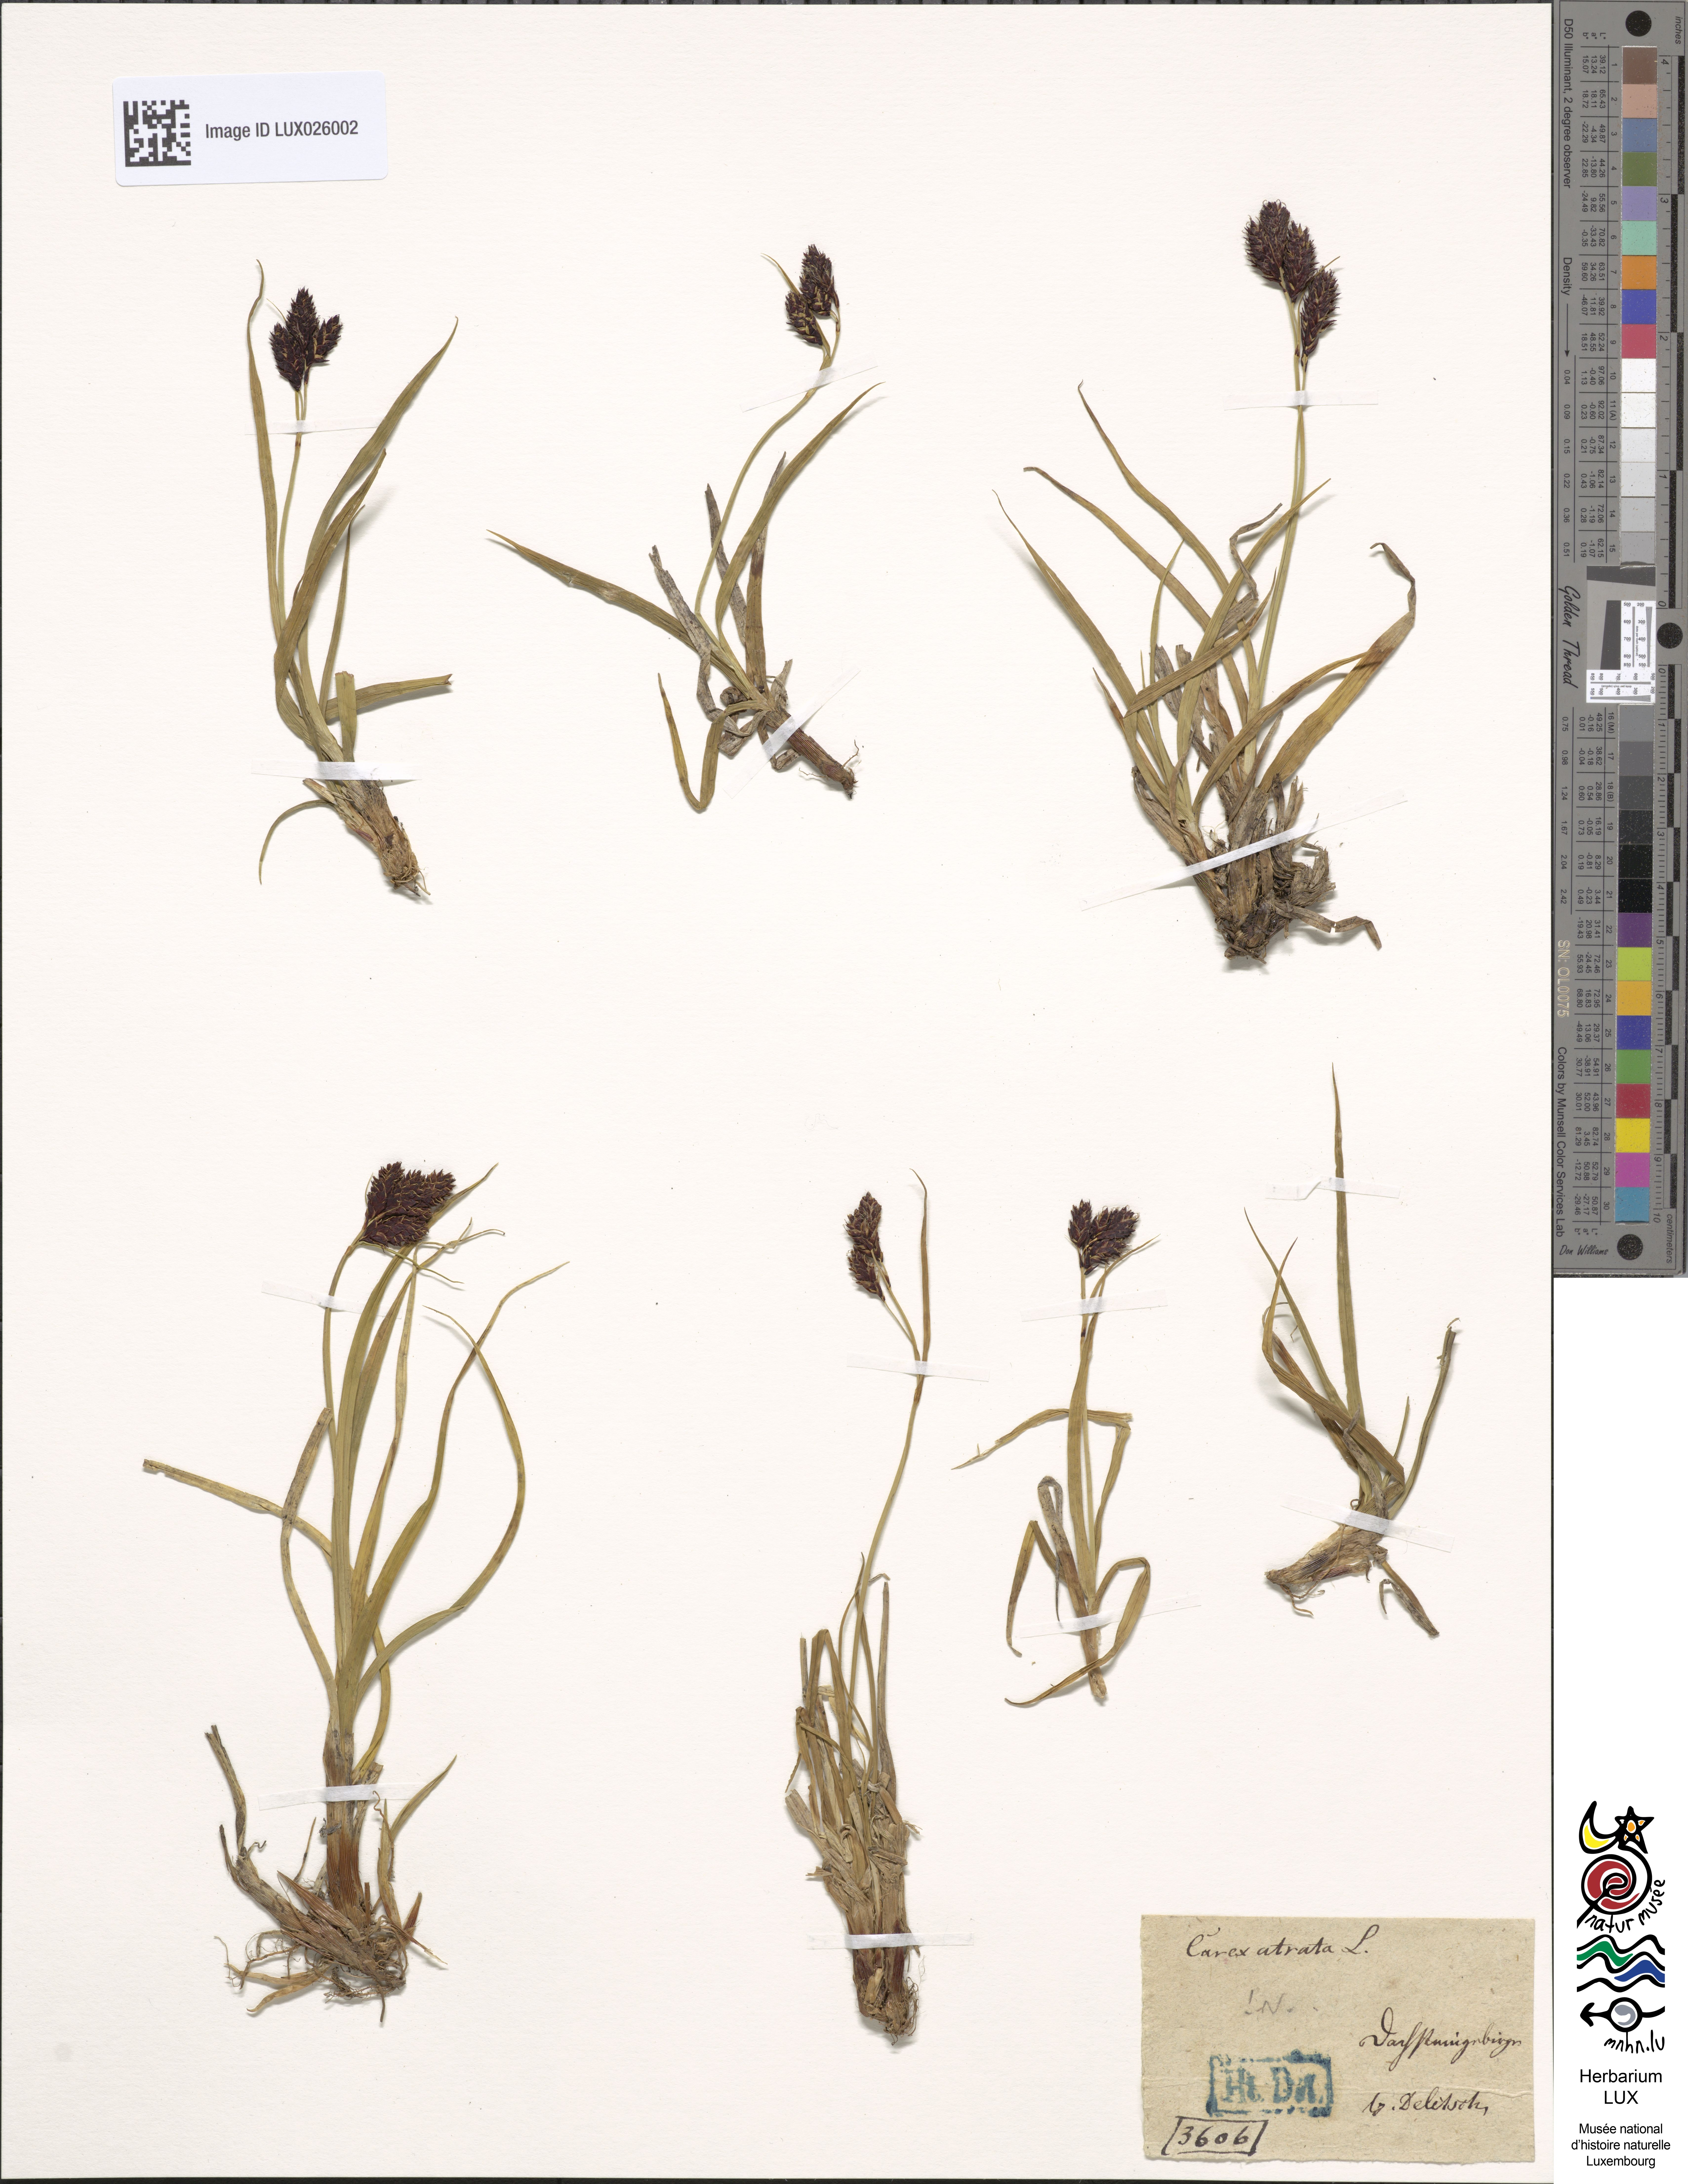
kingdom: Plantae
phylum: Tracheophyta
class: Liliopsida
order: Poales
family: Cyperaceae
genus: Carex
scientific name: Carex atrata
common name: Black alpine sedge
